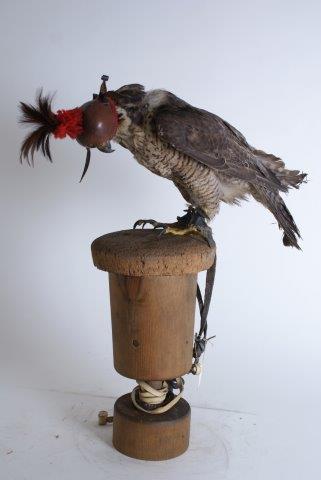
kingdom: Animalia
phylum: Chordata
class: Aves
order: Falconiformes
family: Falconidae
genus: Falco
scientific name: Falco peregrinus
